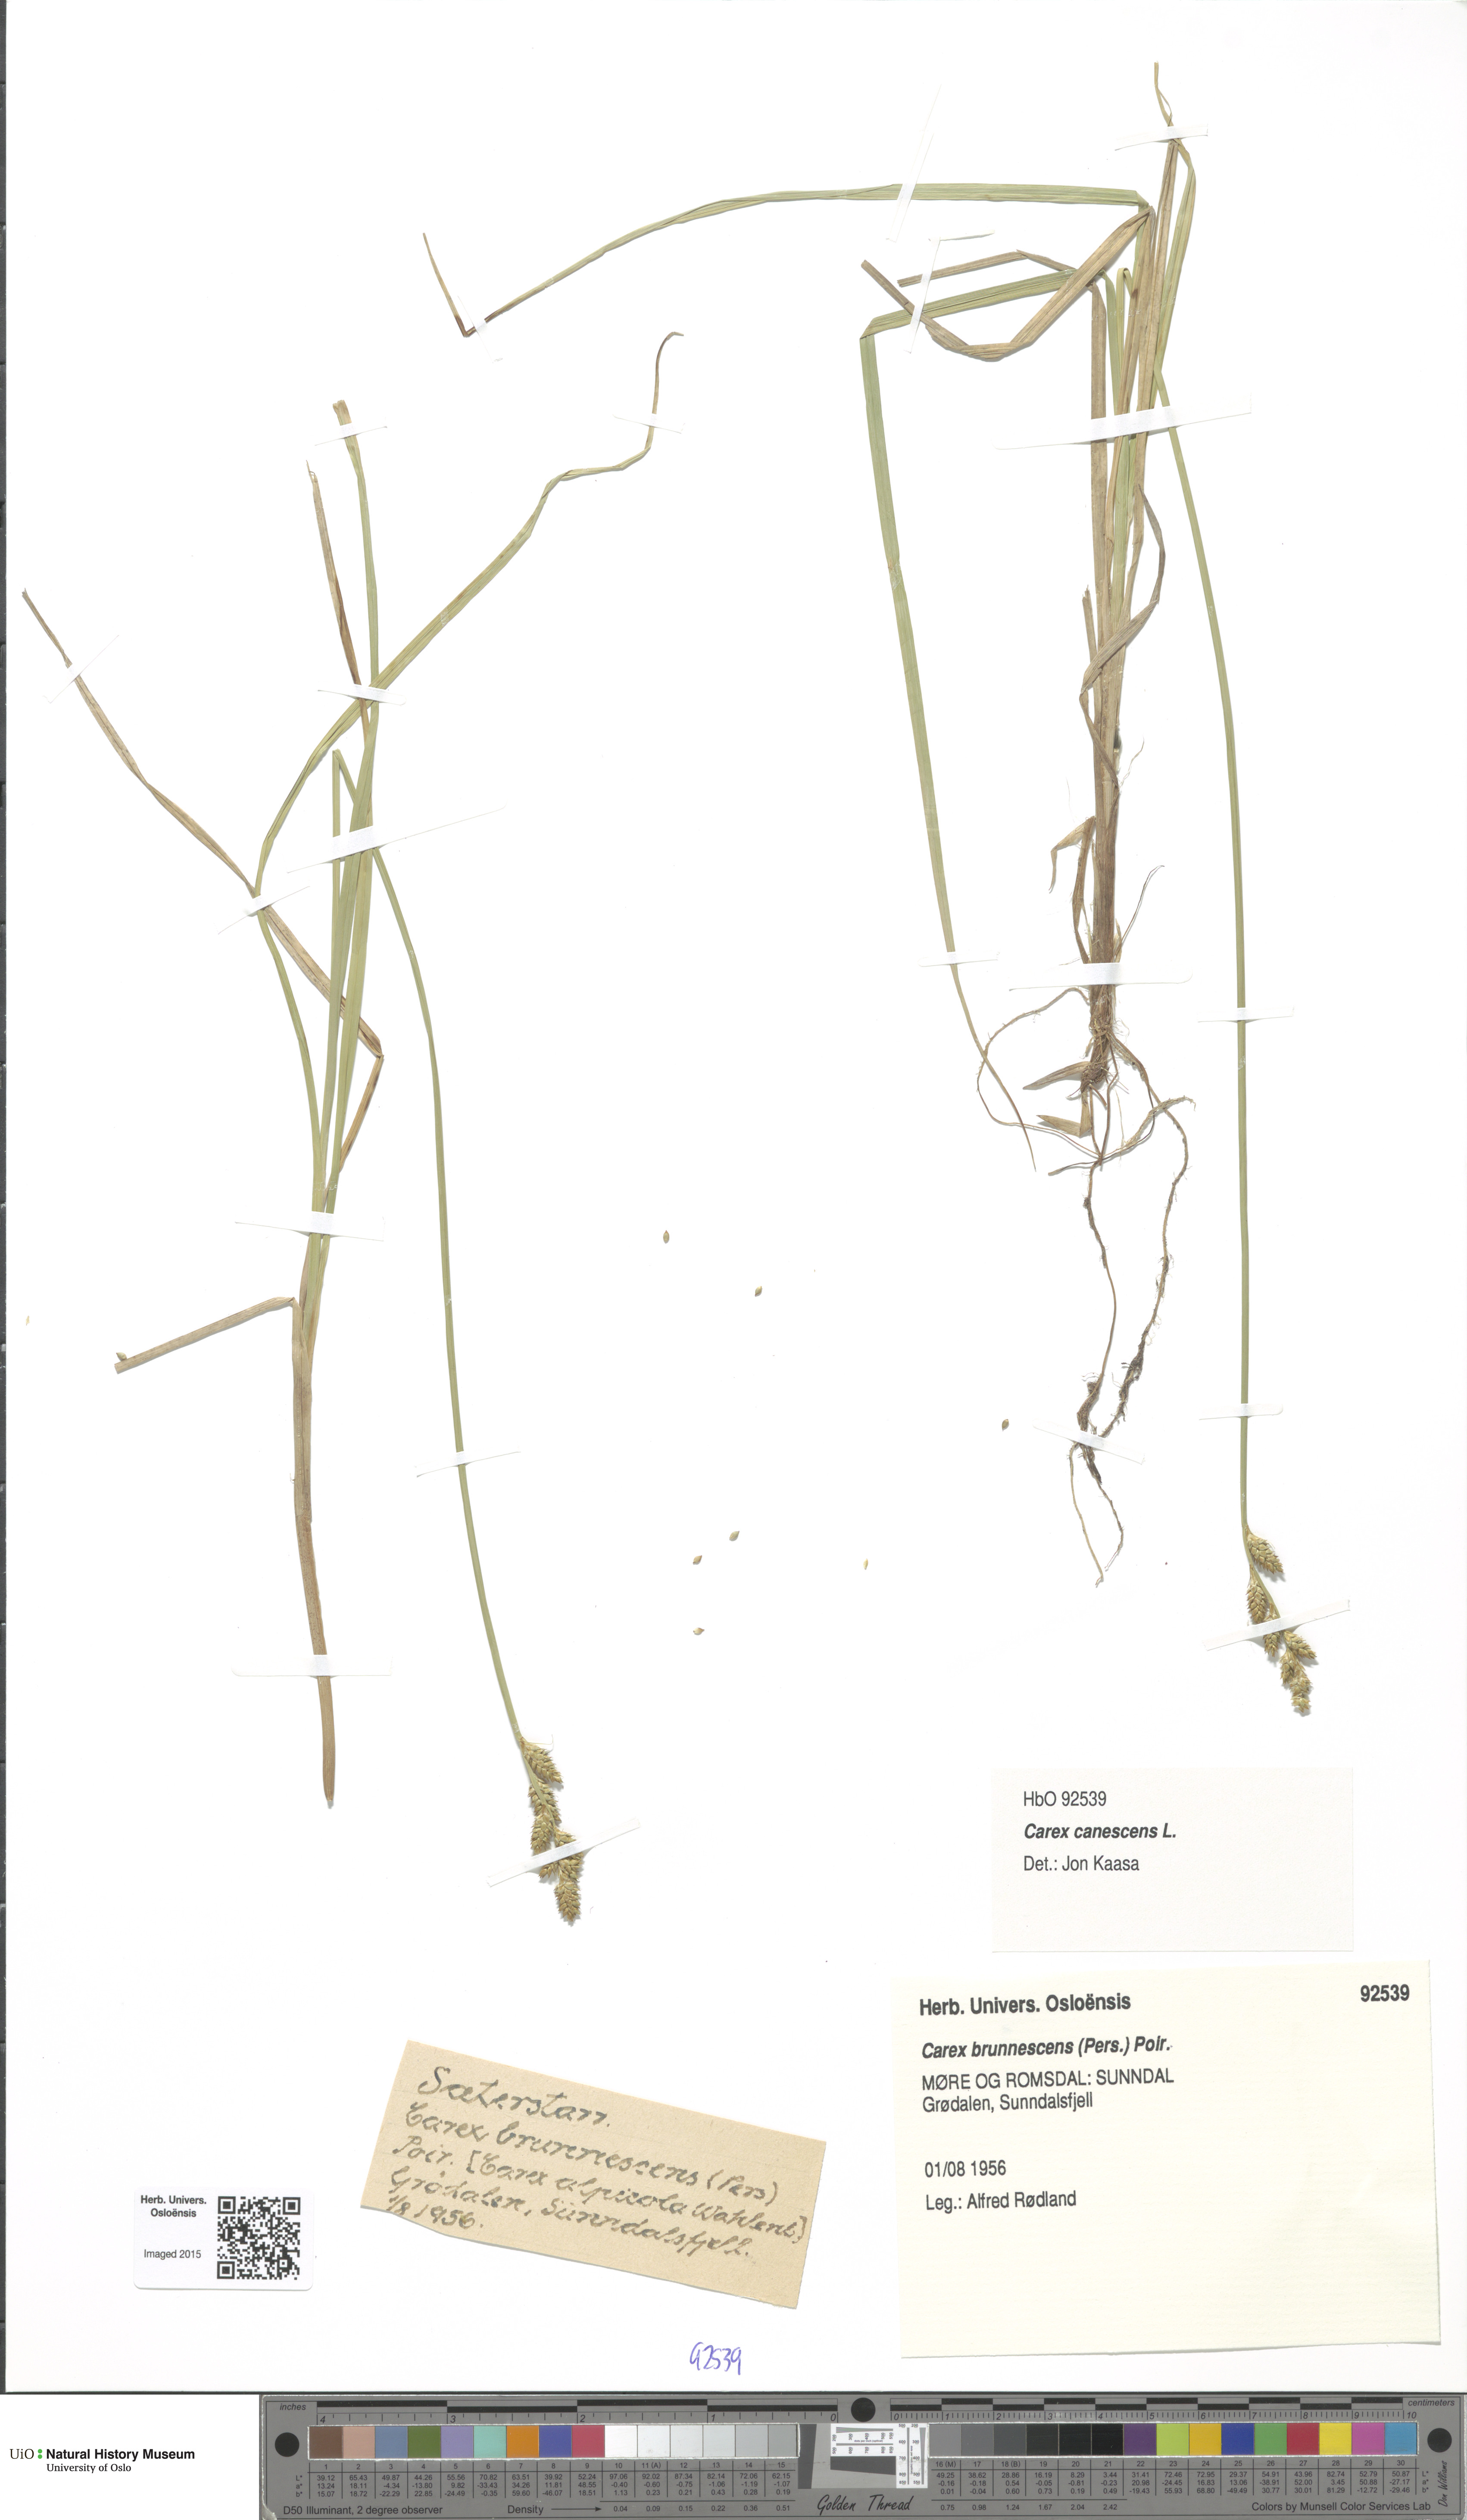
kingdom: Plantae
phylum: Tracheophyta
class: Liliopsida
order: Poales
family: Cyperaceae
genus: Carex
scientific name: Carex canescens
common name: White sedge
